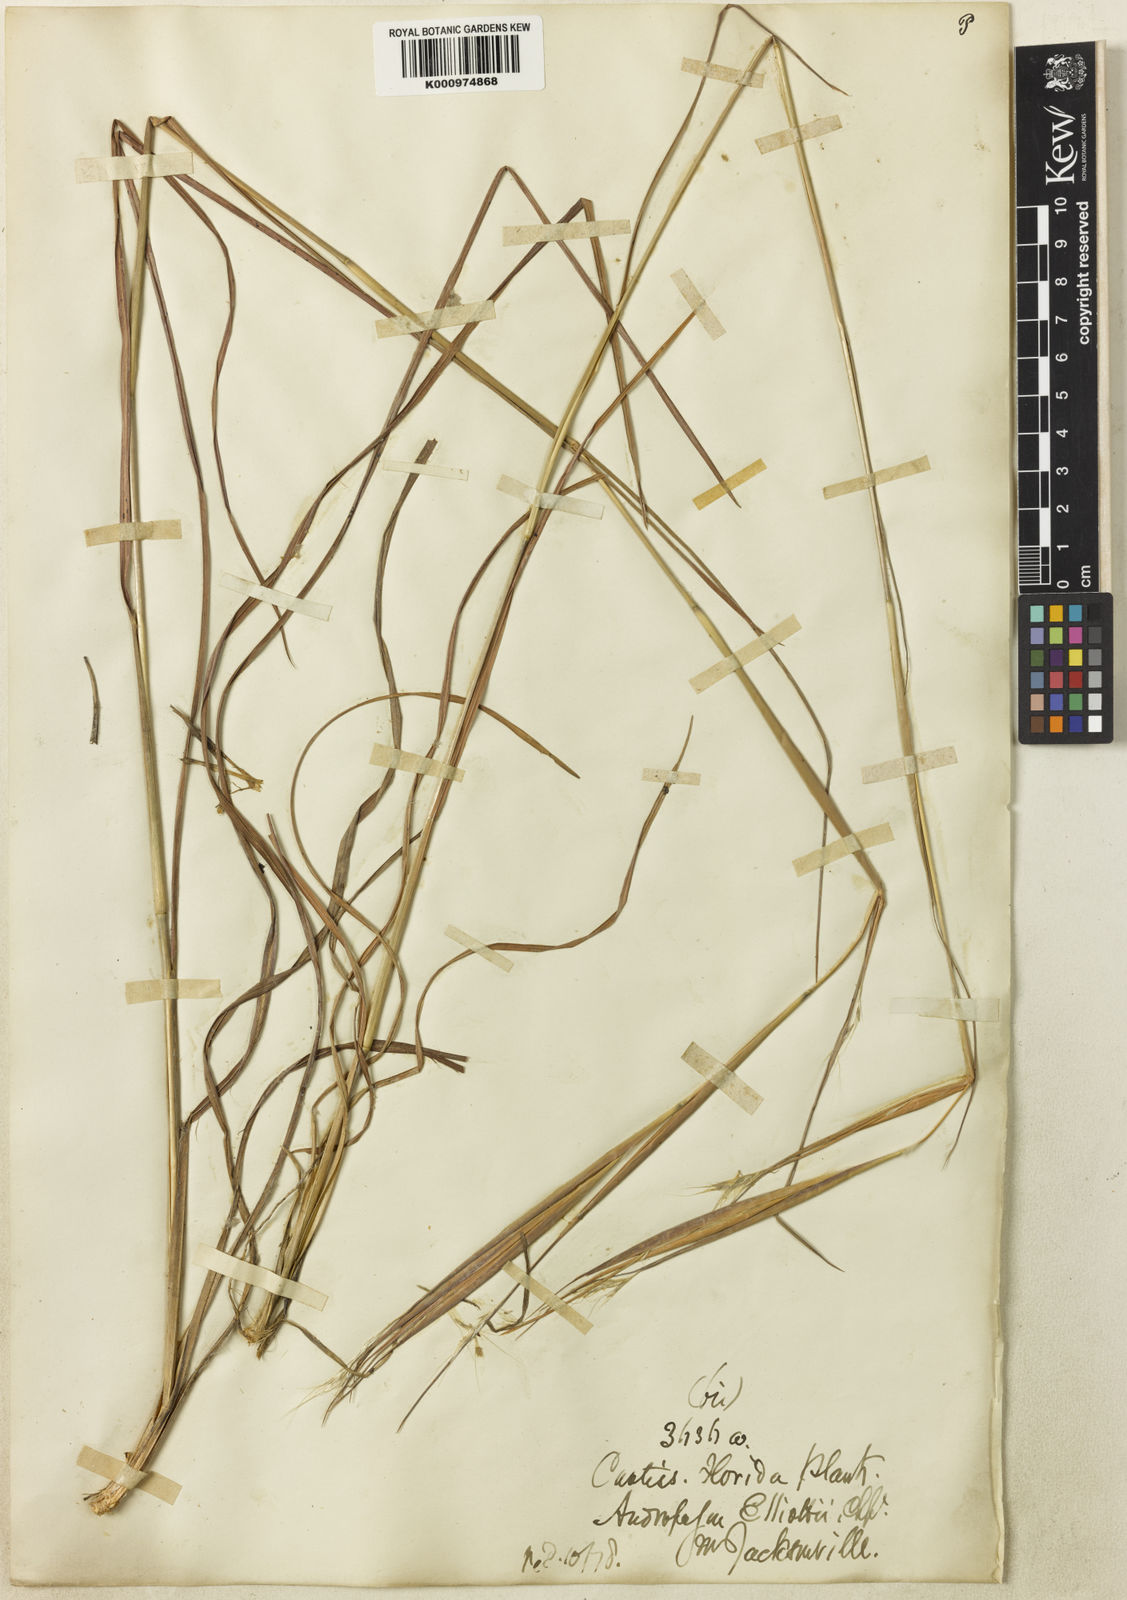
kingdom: Plantae
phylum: Tracheophyta
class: Liliopsida
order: Poales
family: Poaceae
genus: Andropogon
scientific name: Andropogon gyrans
